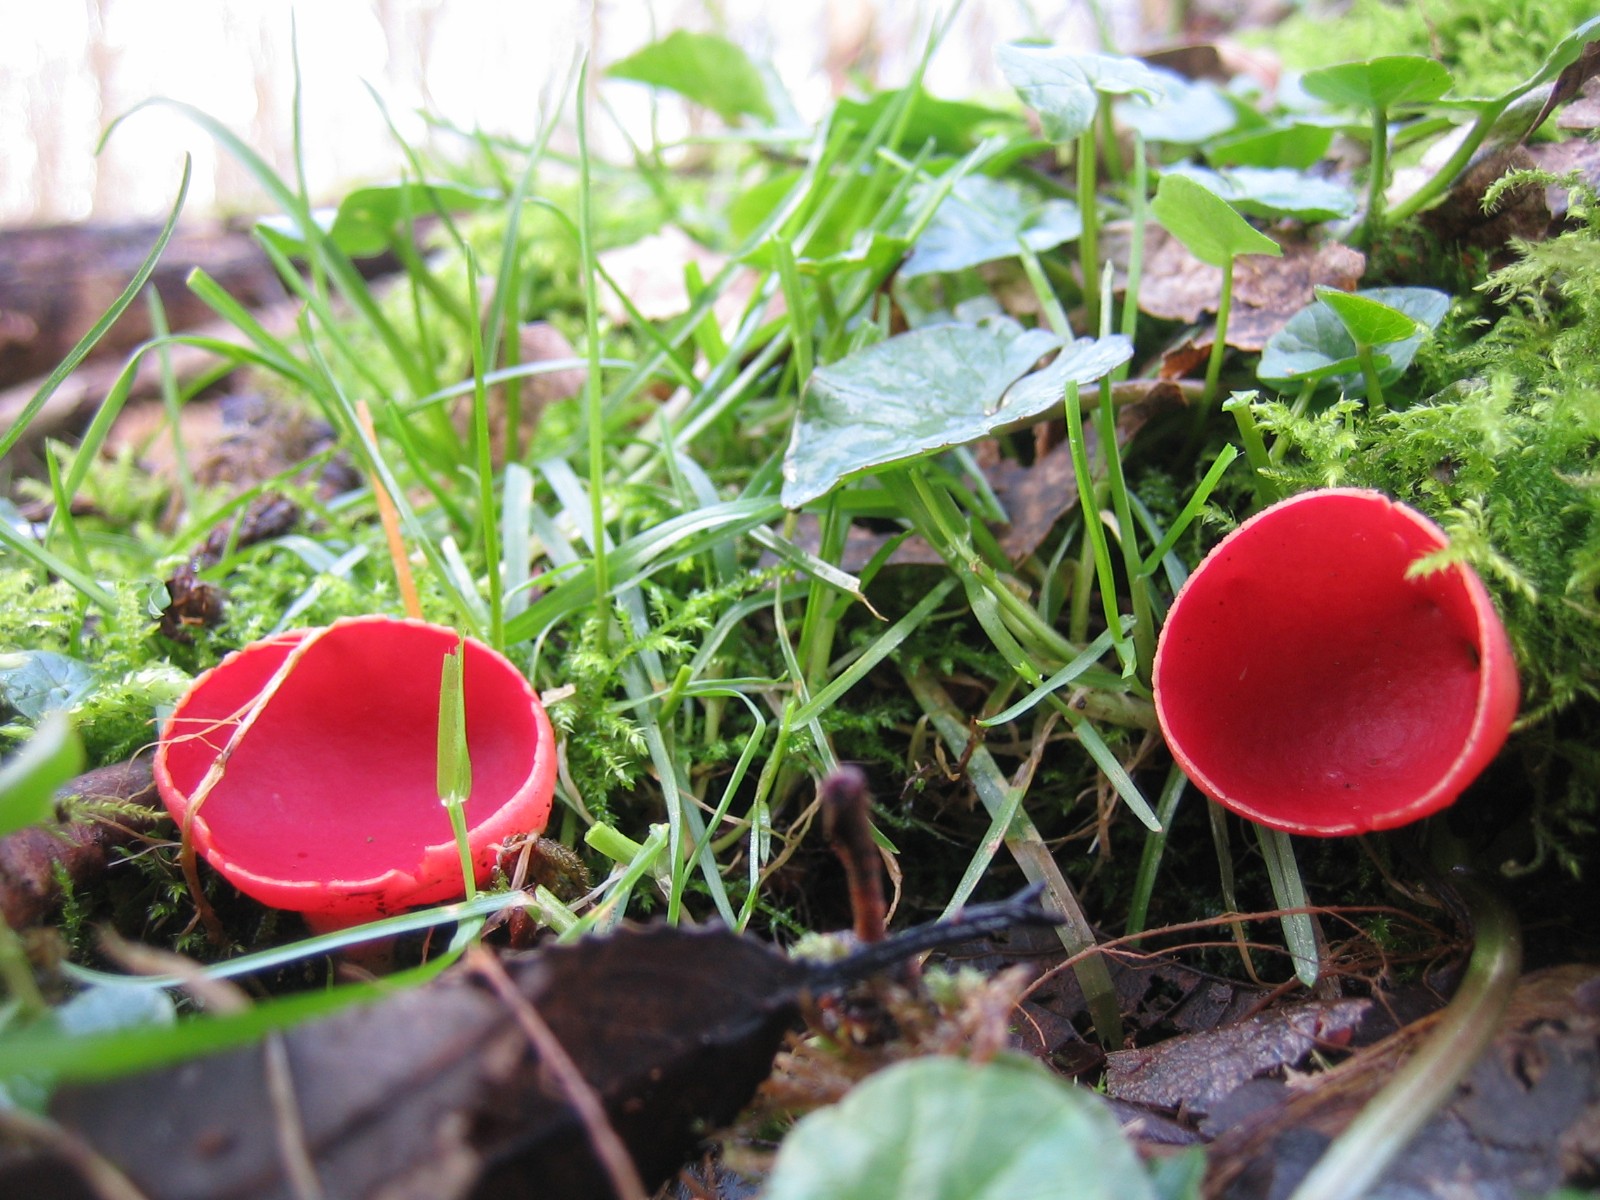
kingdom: Fungi
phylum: Ascomycota
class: Pezizomycetes
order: Pezizales
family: Sarcoscyphaceae
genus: Sarcoscypha
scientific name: Sarcoscypha austriaca
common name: krølhåret pragtbæger
